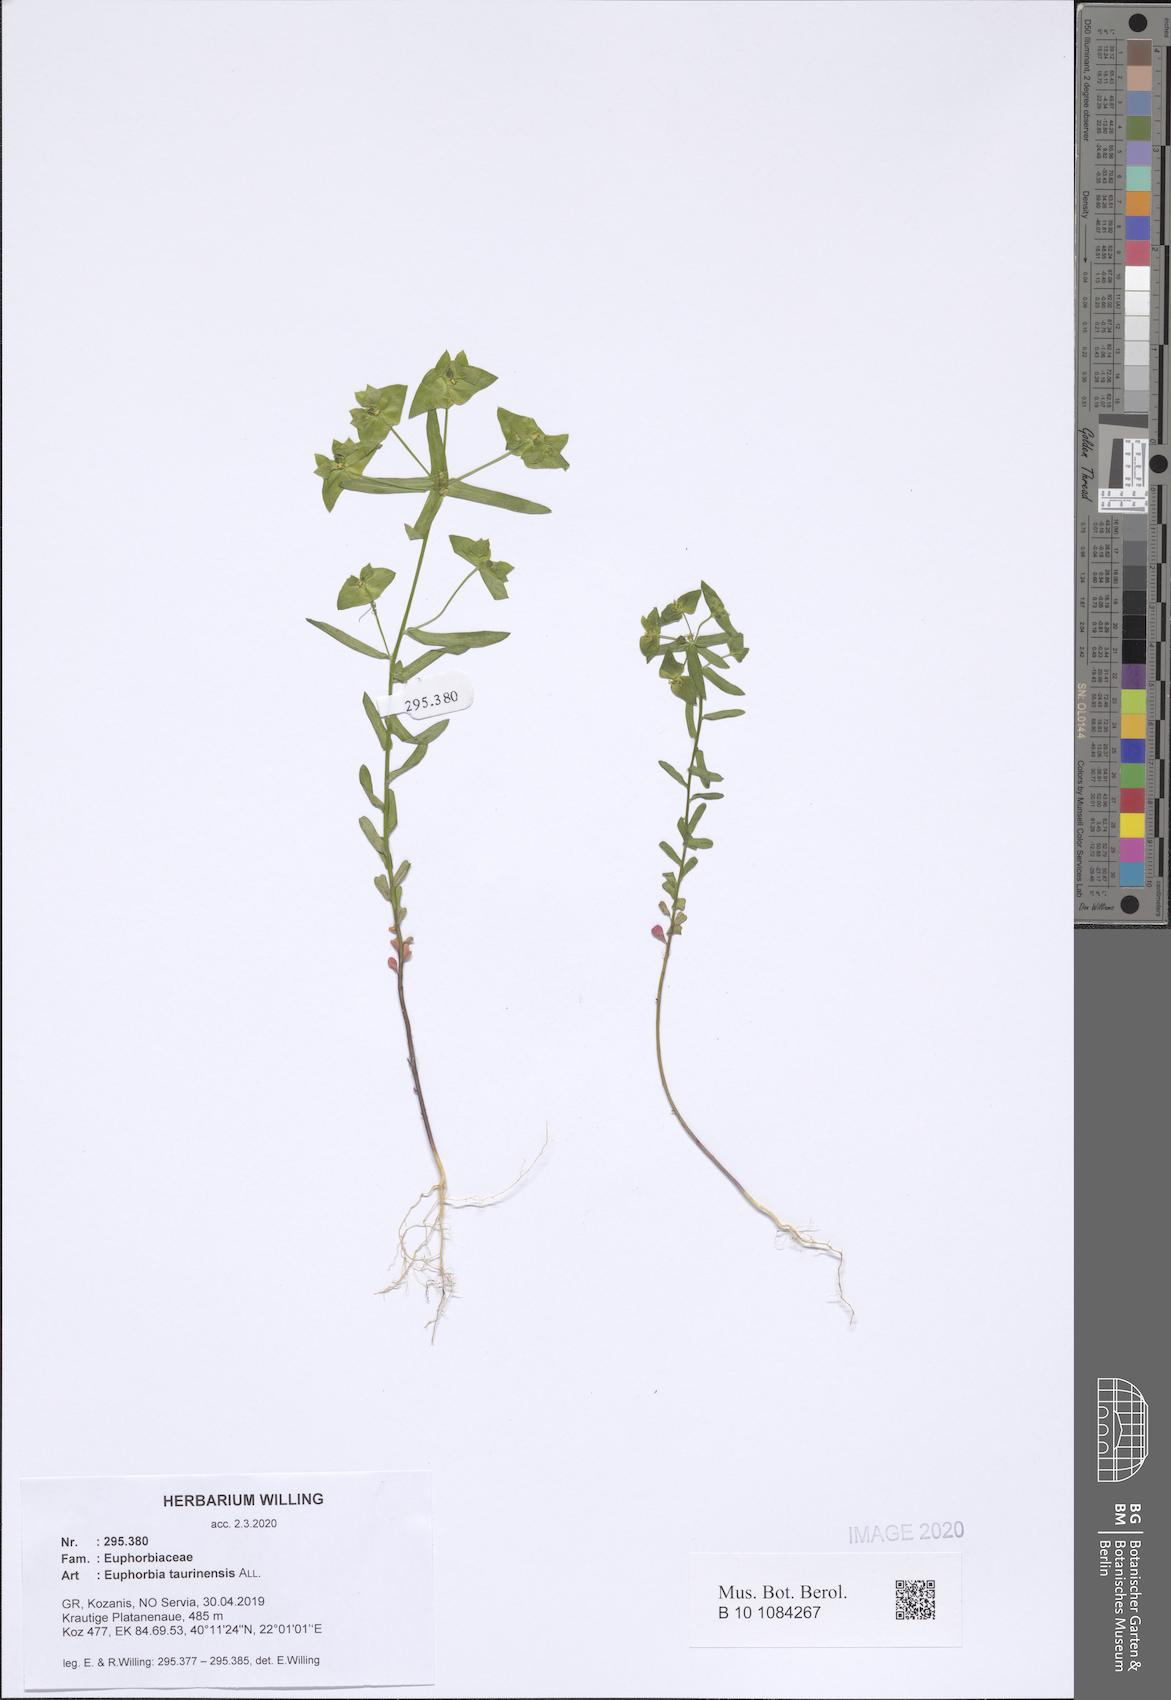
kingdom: Plantae
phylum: Tracheophyta
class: Magnoliopsida
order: Malpighiales
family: Euphorbiaceae
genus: Euphorbia
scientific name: Euphorbia taurinensis
